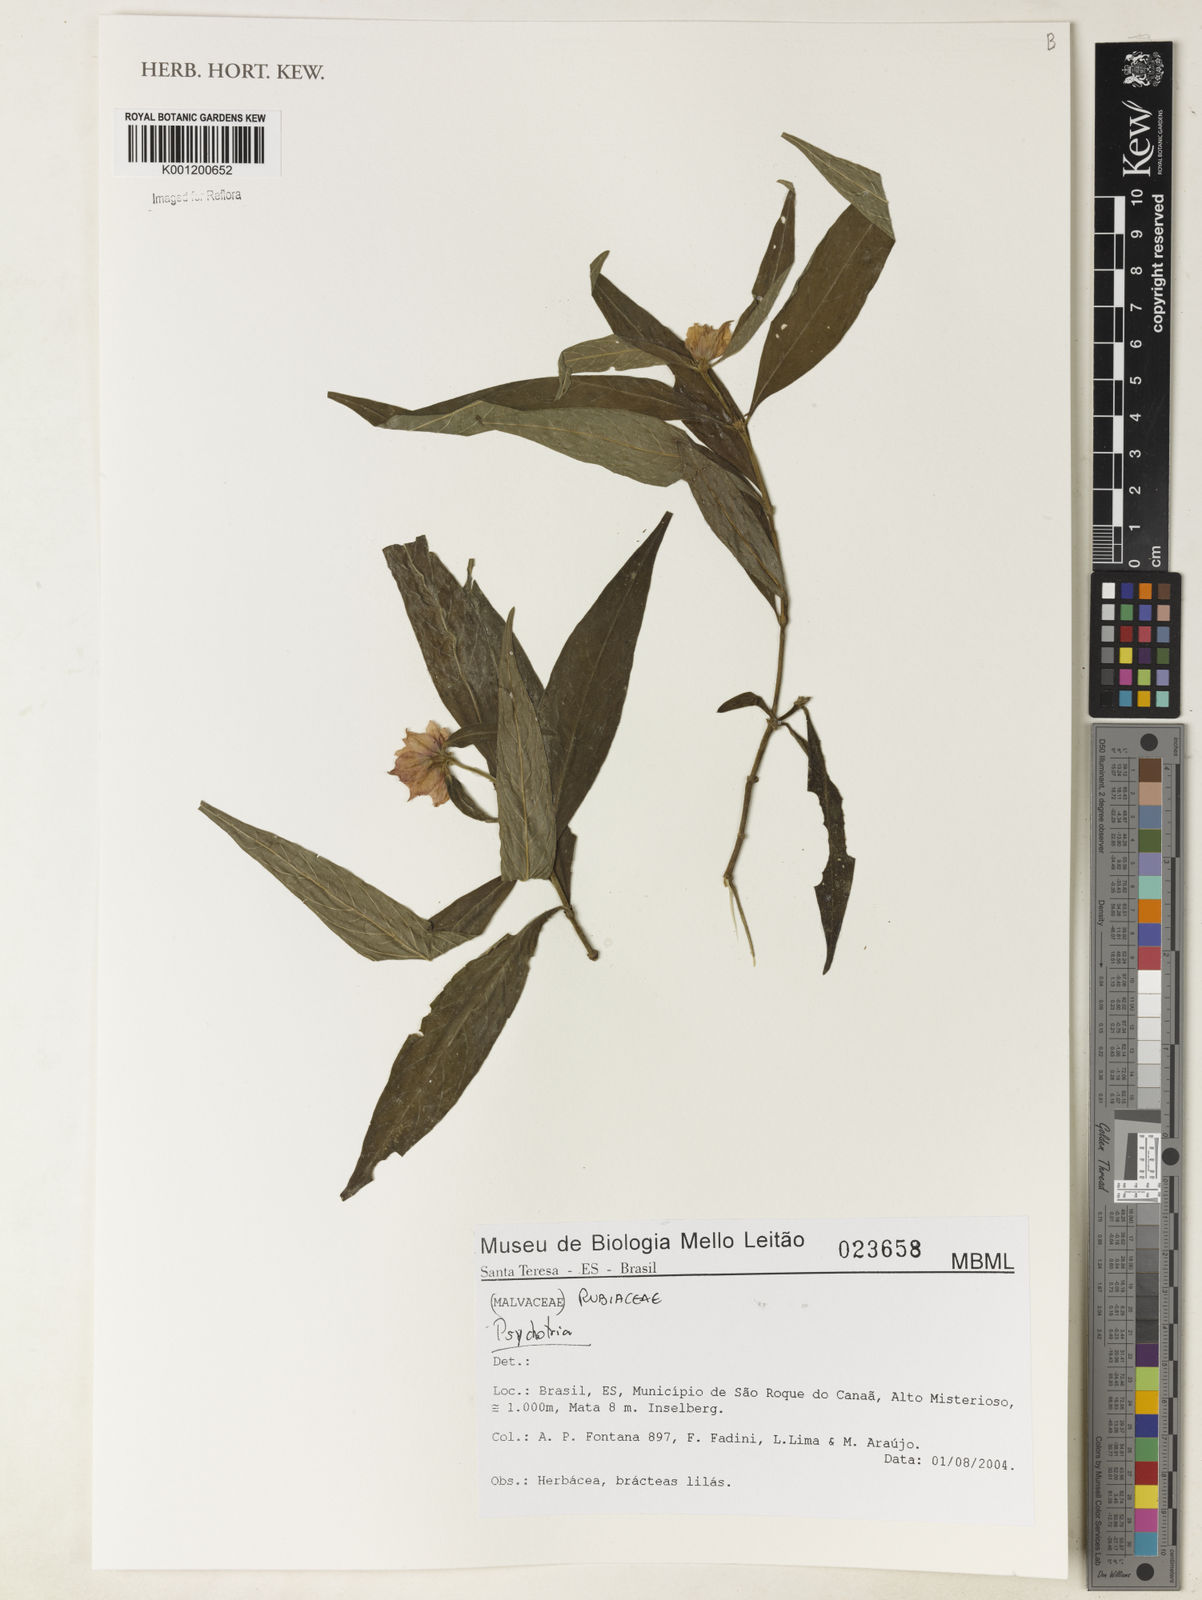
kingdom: Plantae
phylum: Tracheophyta
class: Magnoliopsida
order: Gentianales
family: Rubiaceae
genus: Psychotria
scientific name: Psychotria
